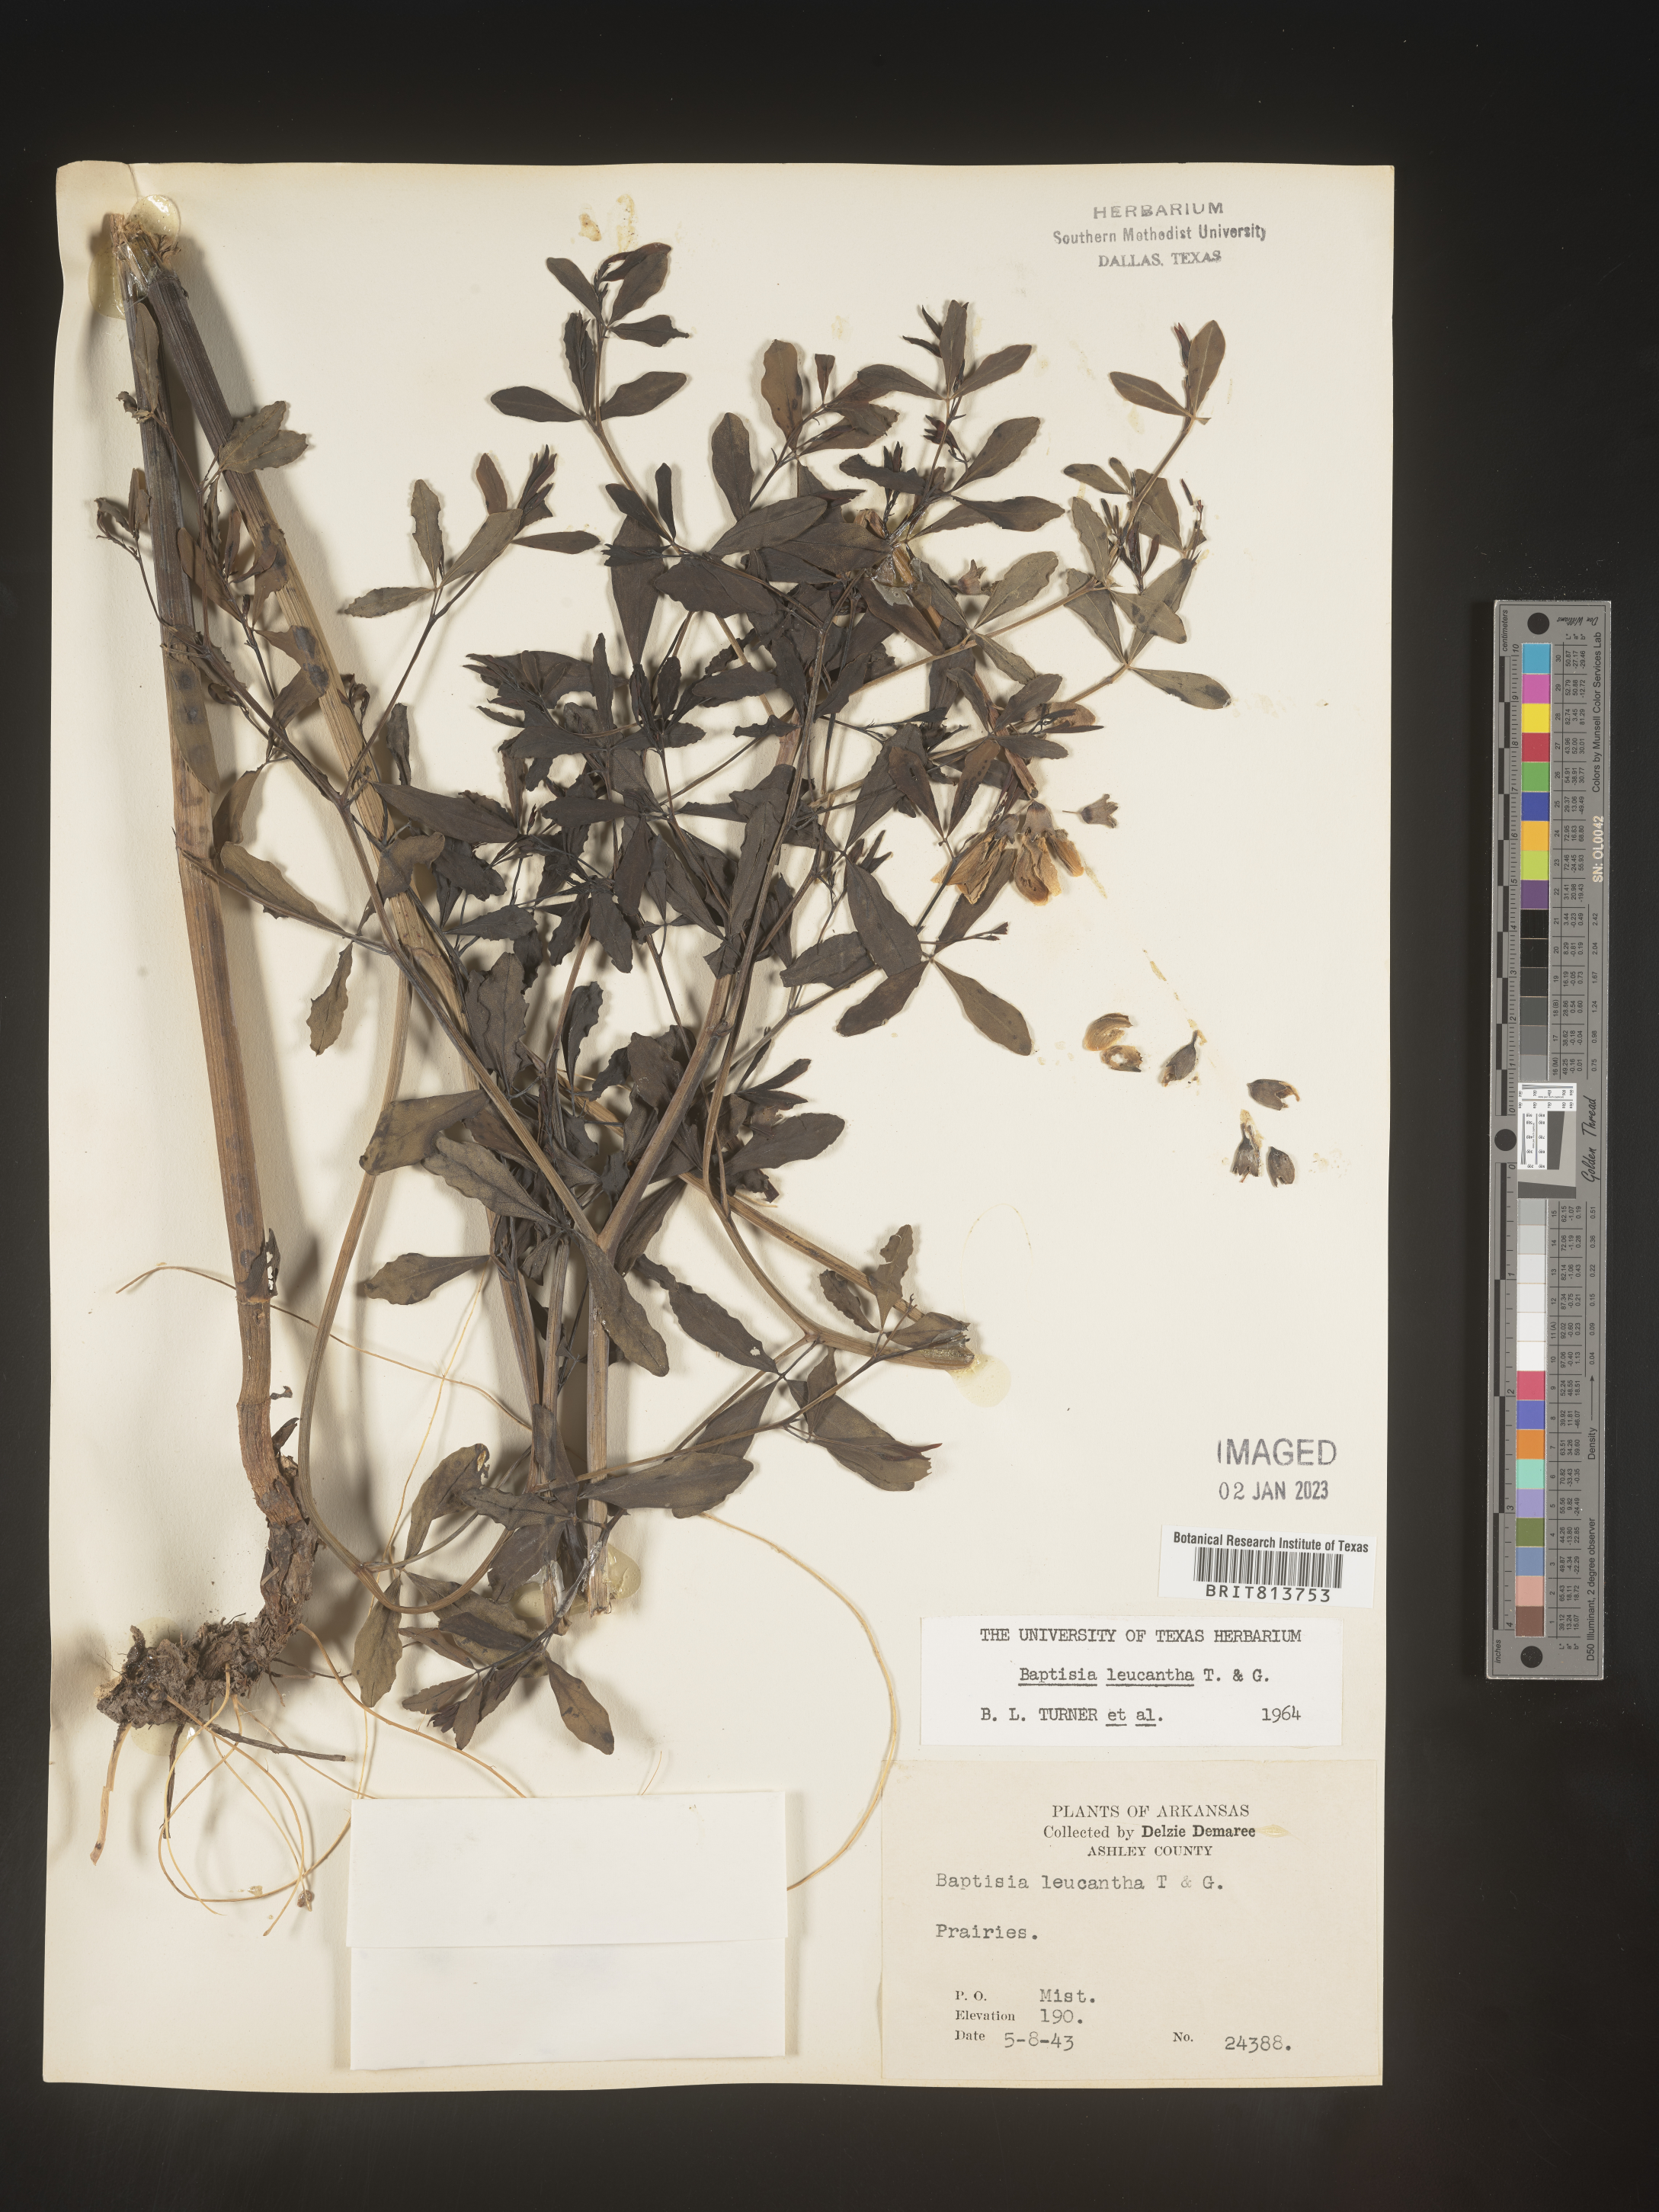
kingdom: Plantae
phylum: Tracheophyta
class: Magnoliopsida
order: Fabales
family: Fabaceae
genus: Baptisia
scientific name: Baptisia alba
